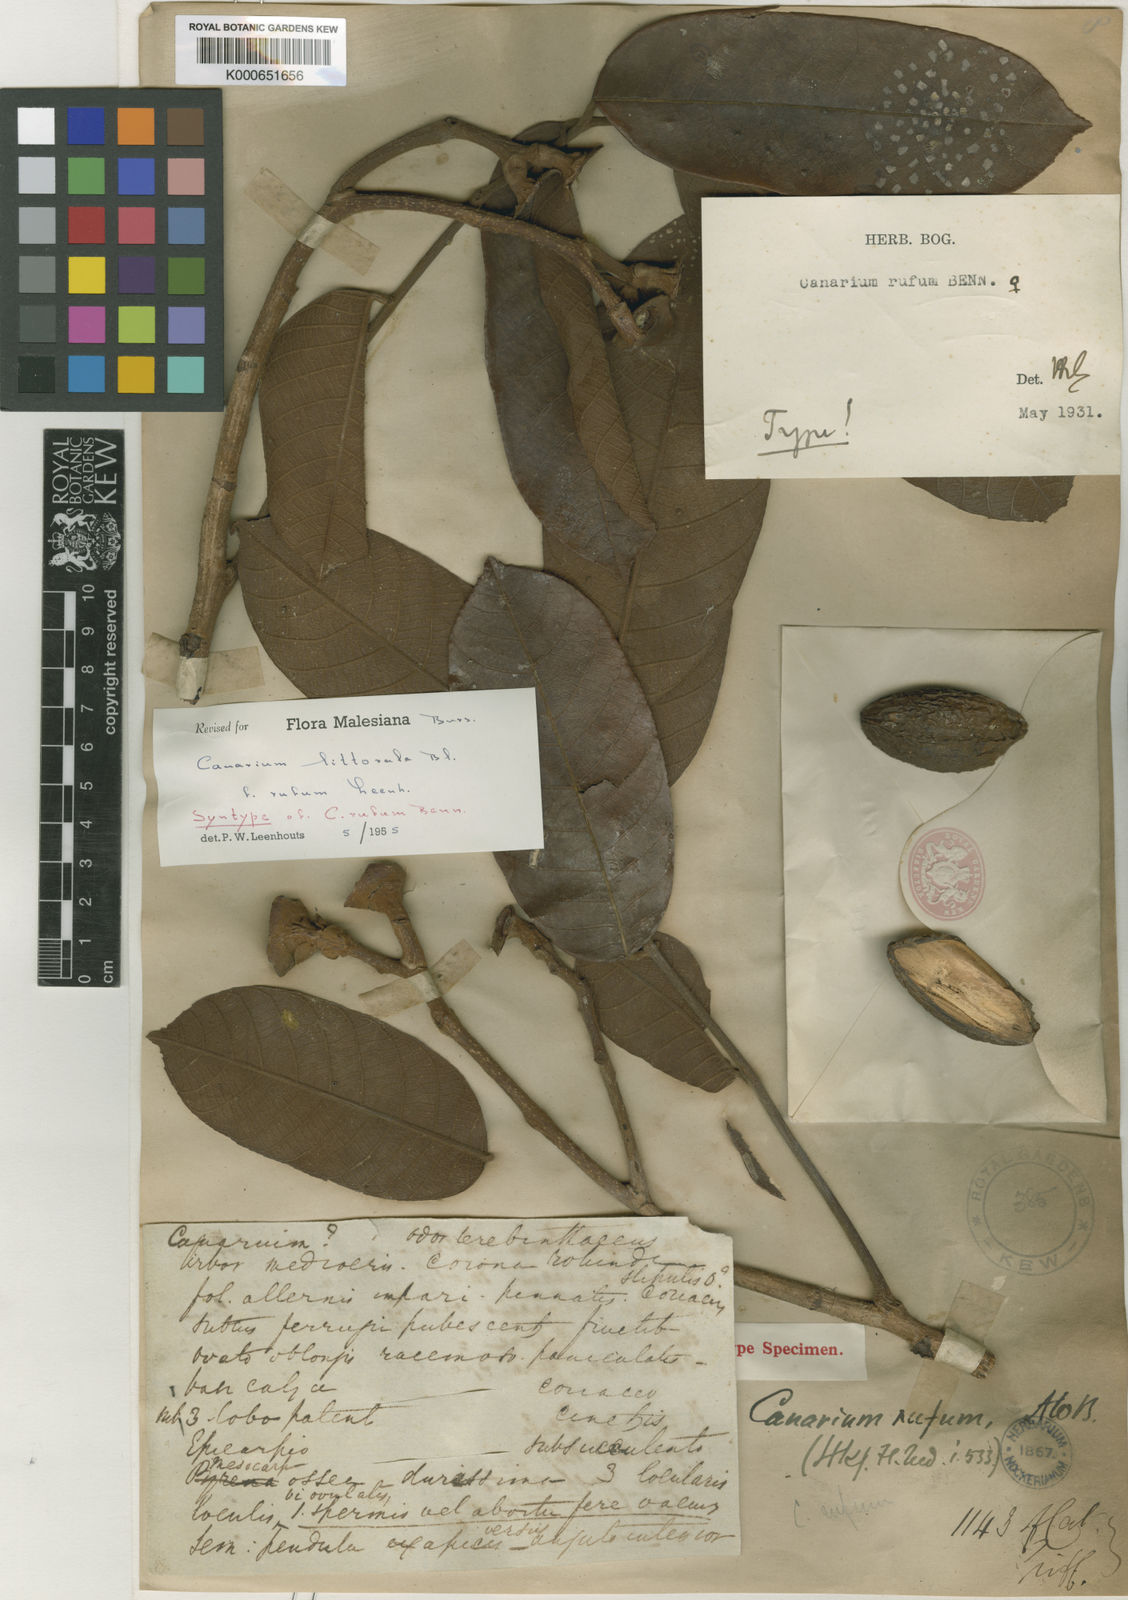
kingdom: Plantae
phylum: Tracheophyta
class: Magnoliopsida
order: Sapindales
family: Burseraceae
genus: Canarium
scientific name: Canarium littorale
